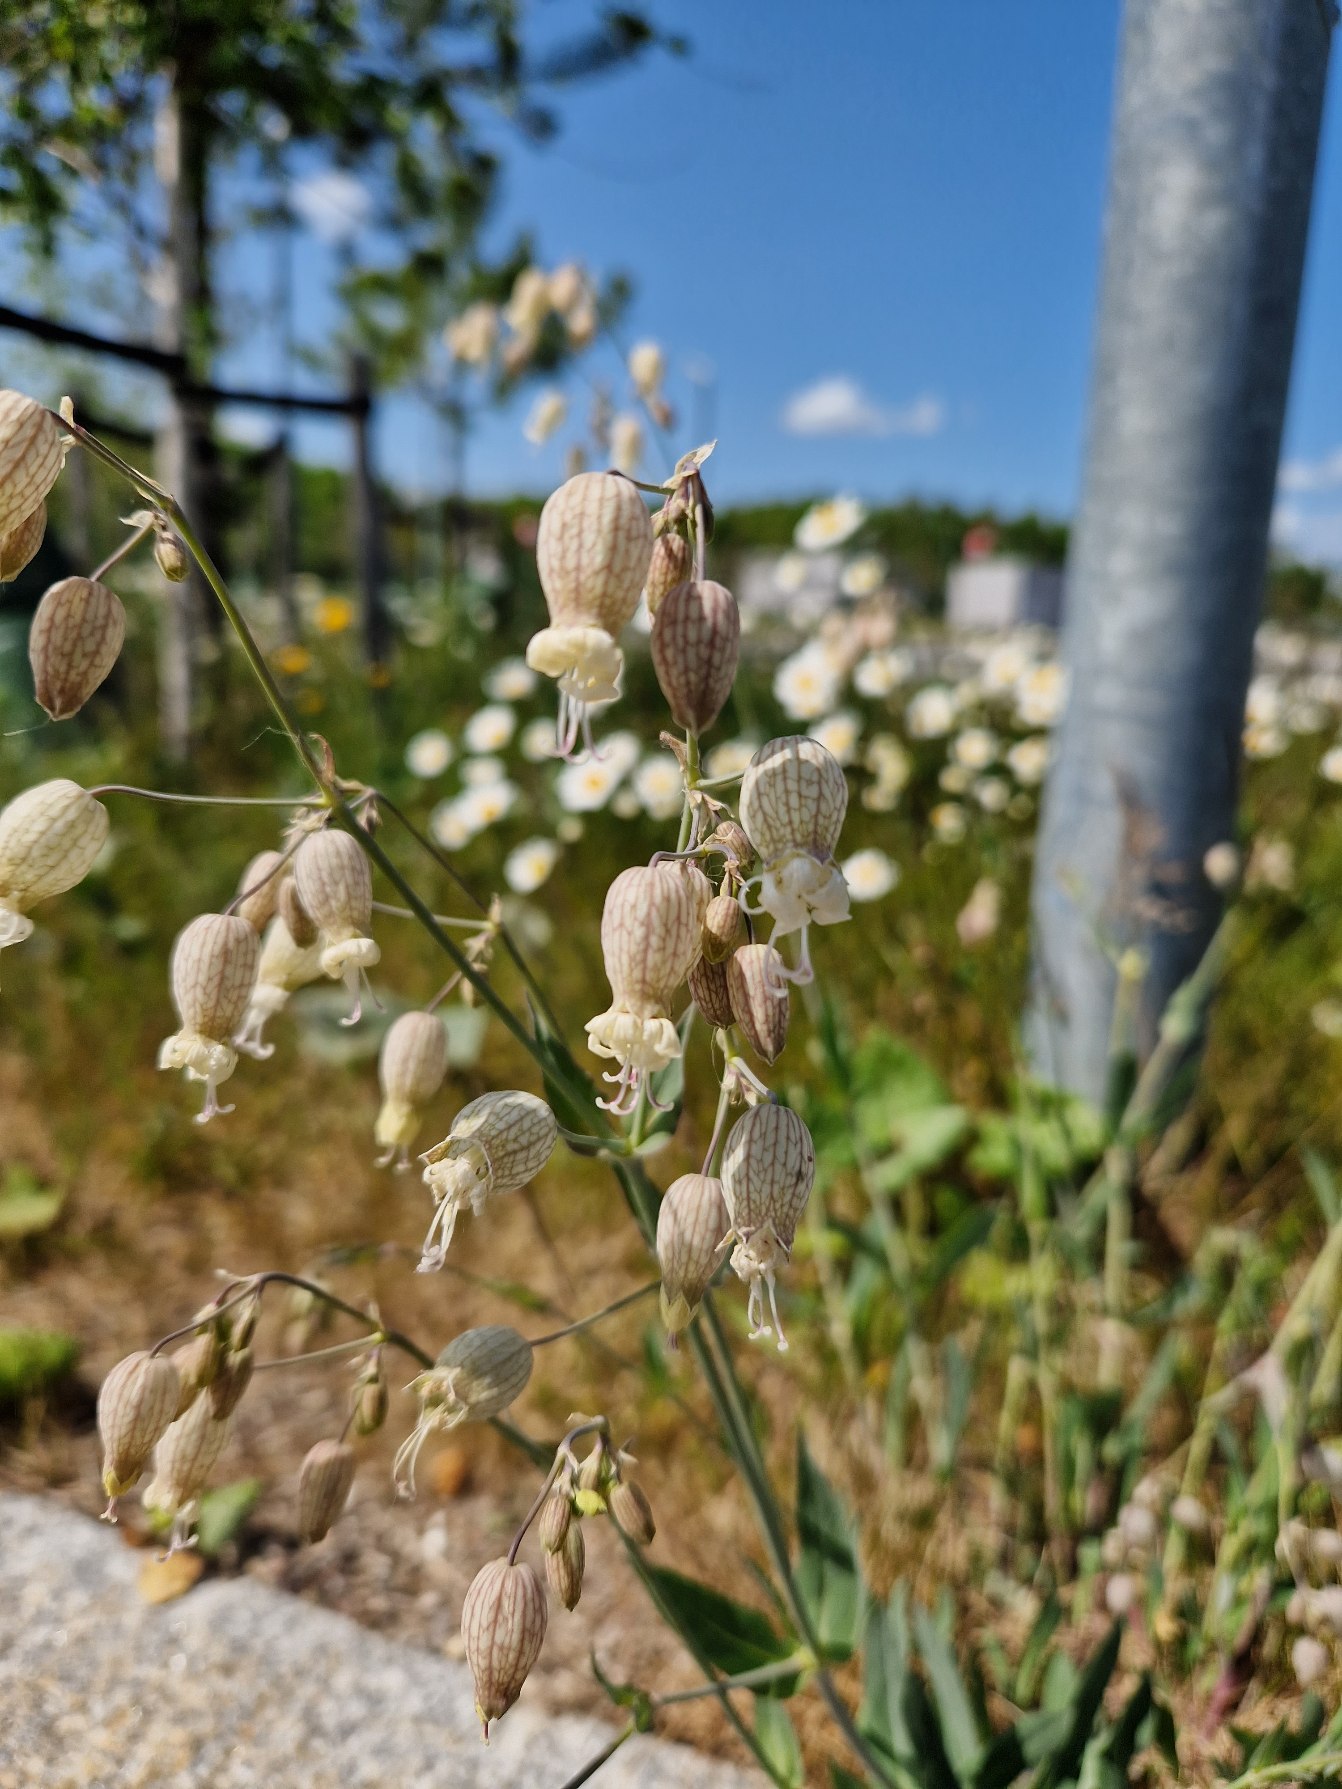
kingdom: Plantae
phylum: Tracheophyta
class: Magnoliopsida
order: Caryophyllales
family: Caryophyllaceae
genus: Silene
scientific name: Silene vulgaris
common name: Blæresmælde
